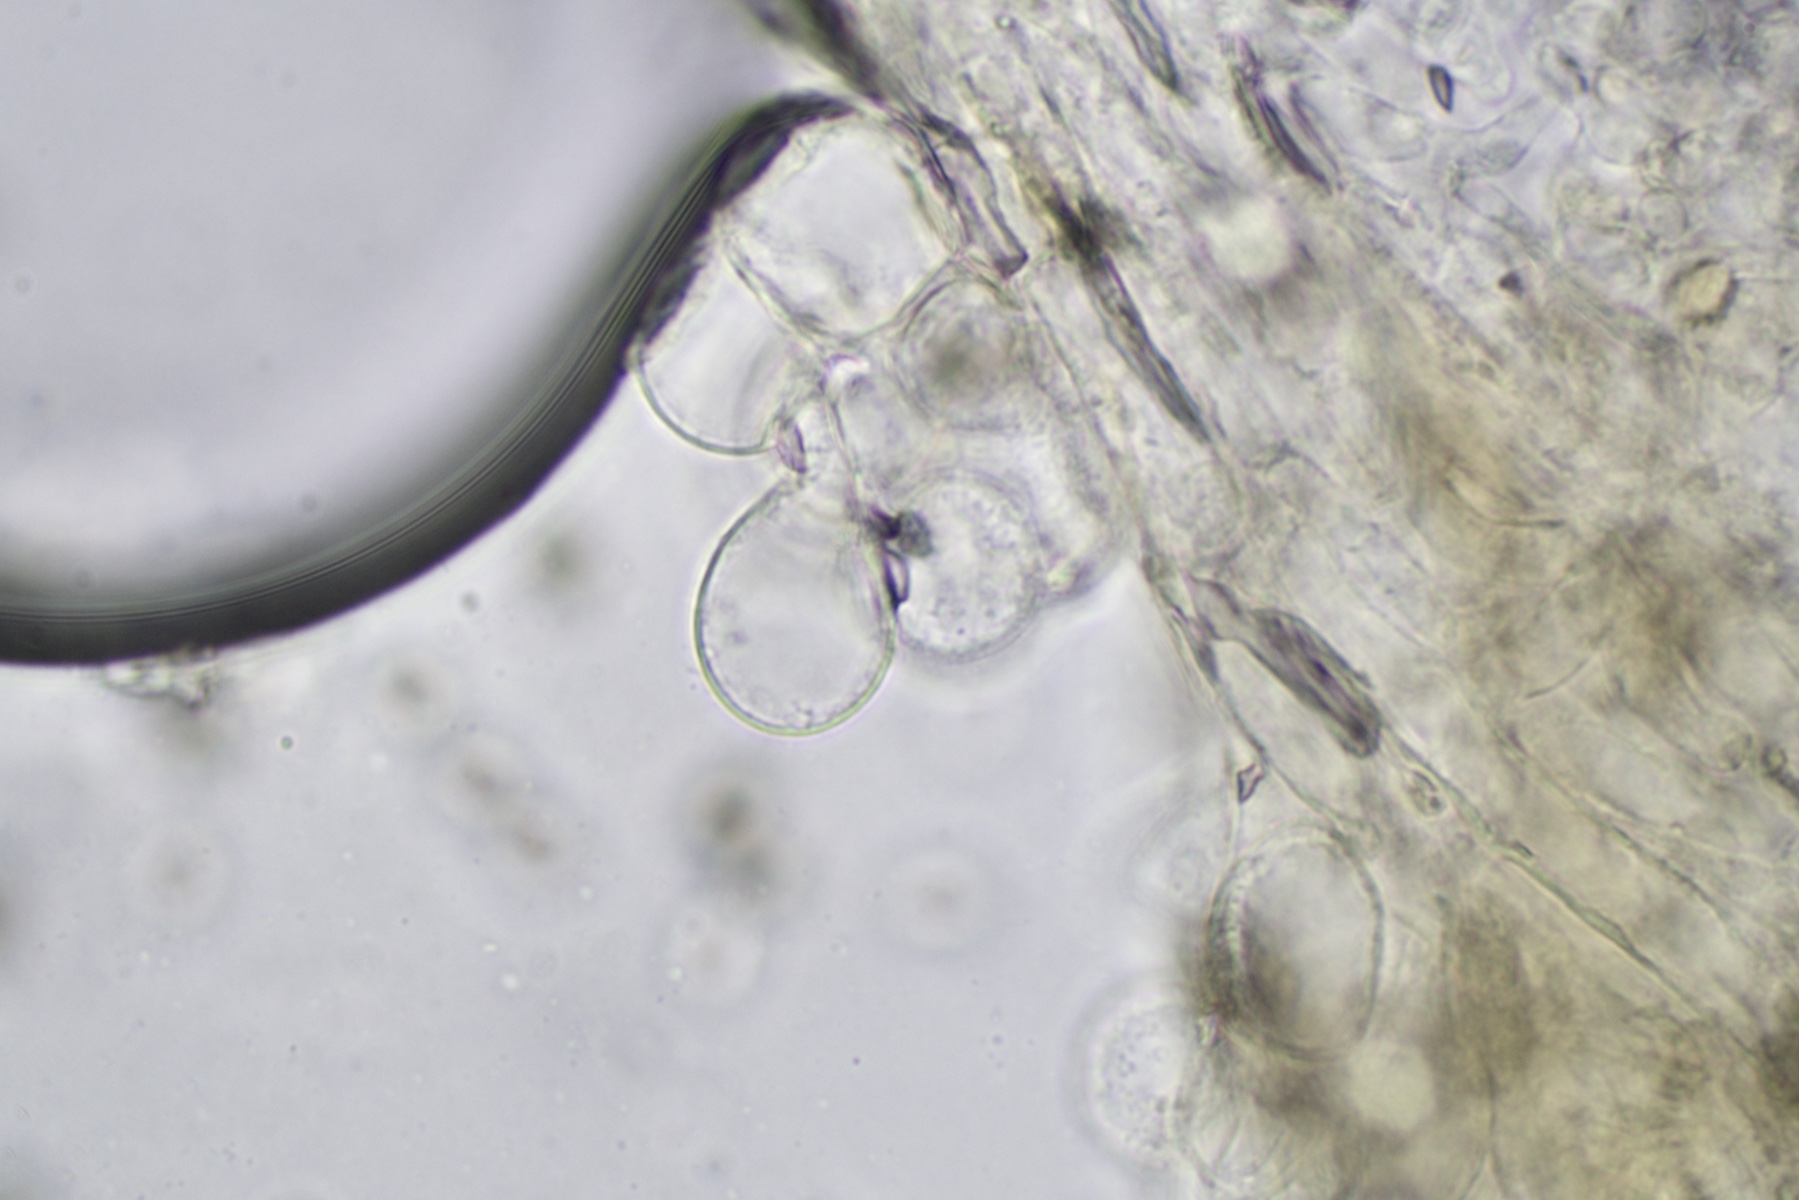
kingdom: Fungi
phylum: Basidiomycota
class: Agaricomycetes
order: Agaricales
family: Agaricaceae
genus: Agaricus
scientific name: Agaricus macrocarpus
